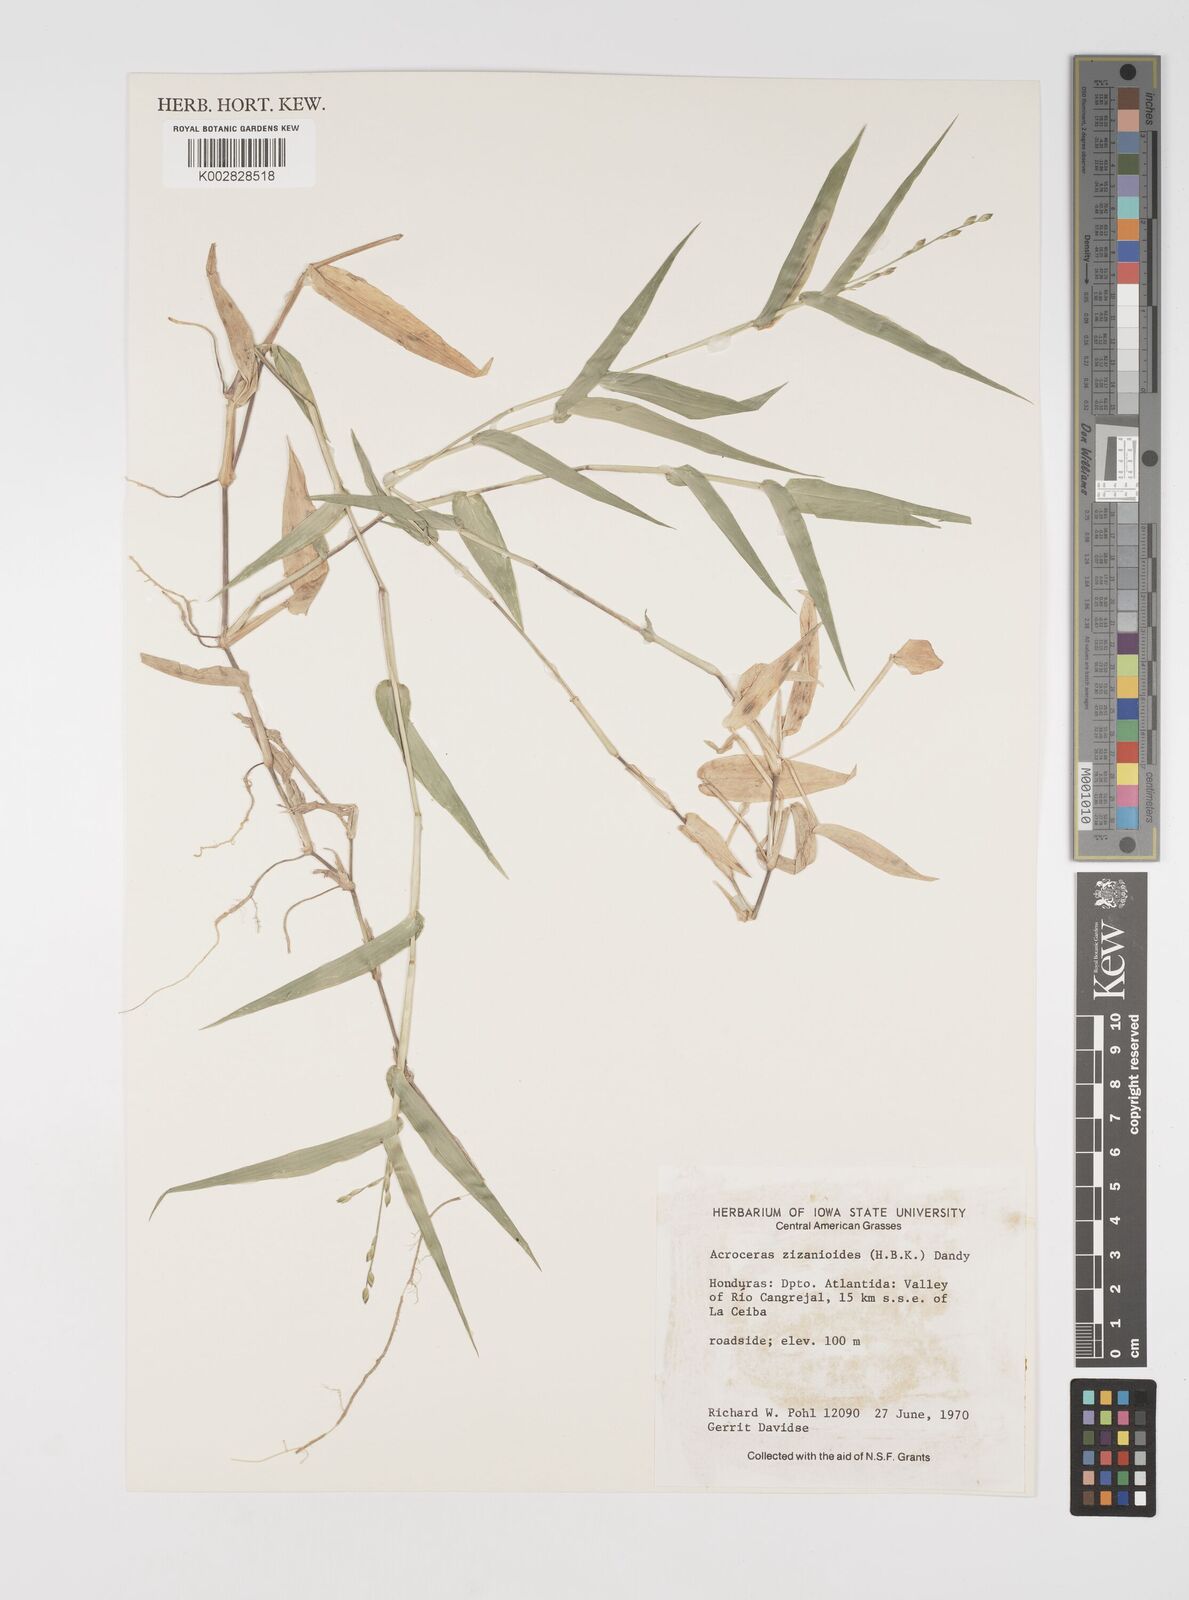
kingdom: Plantae
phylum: Tracheophyta
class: Liliopsida
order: Poales
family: Poaceae
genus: Acroceras
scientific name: Acroceras zizanioides
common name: Oat grass
